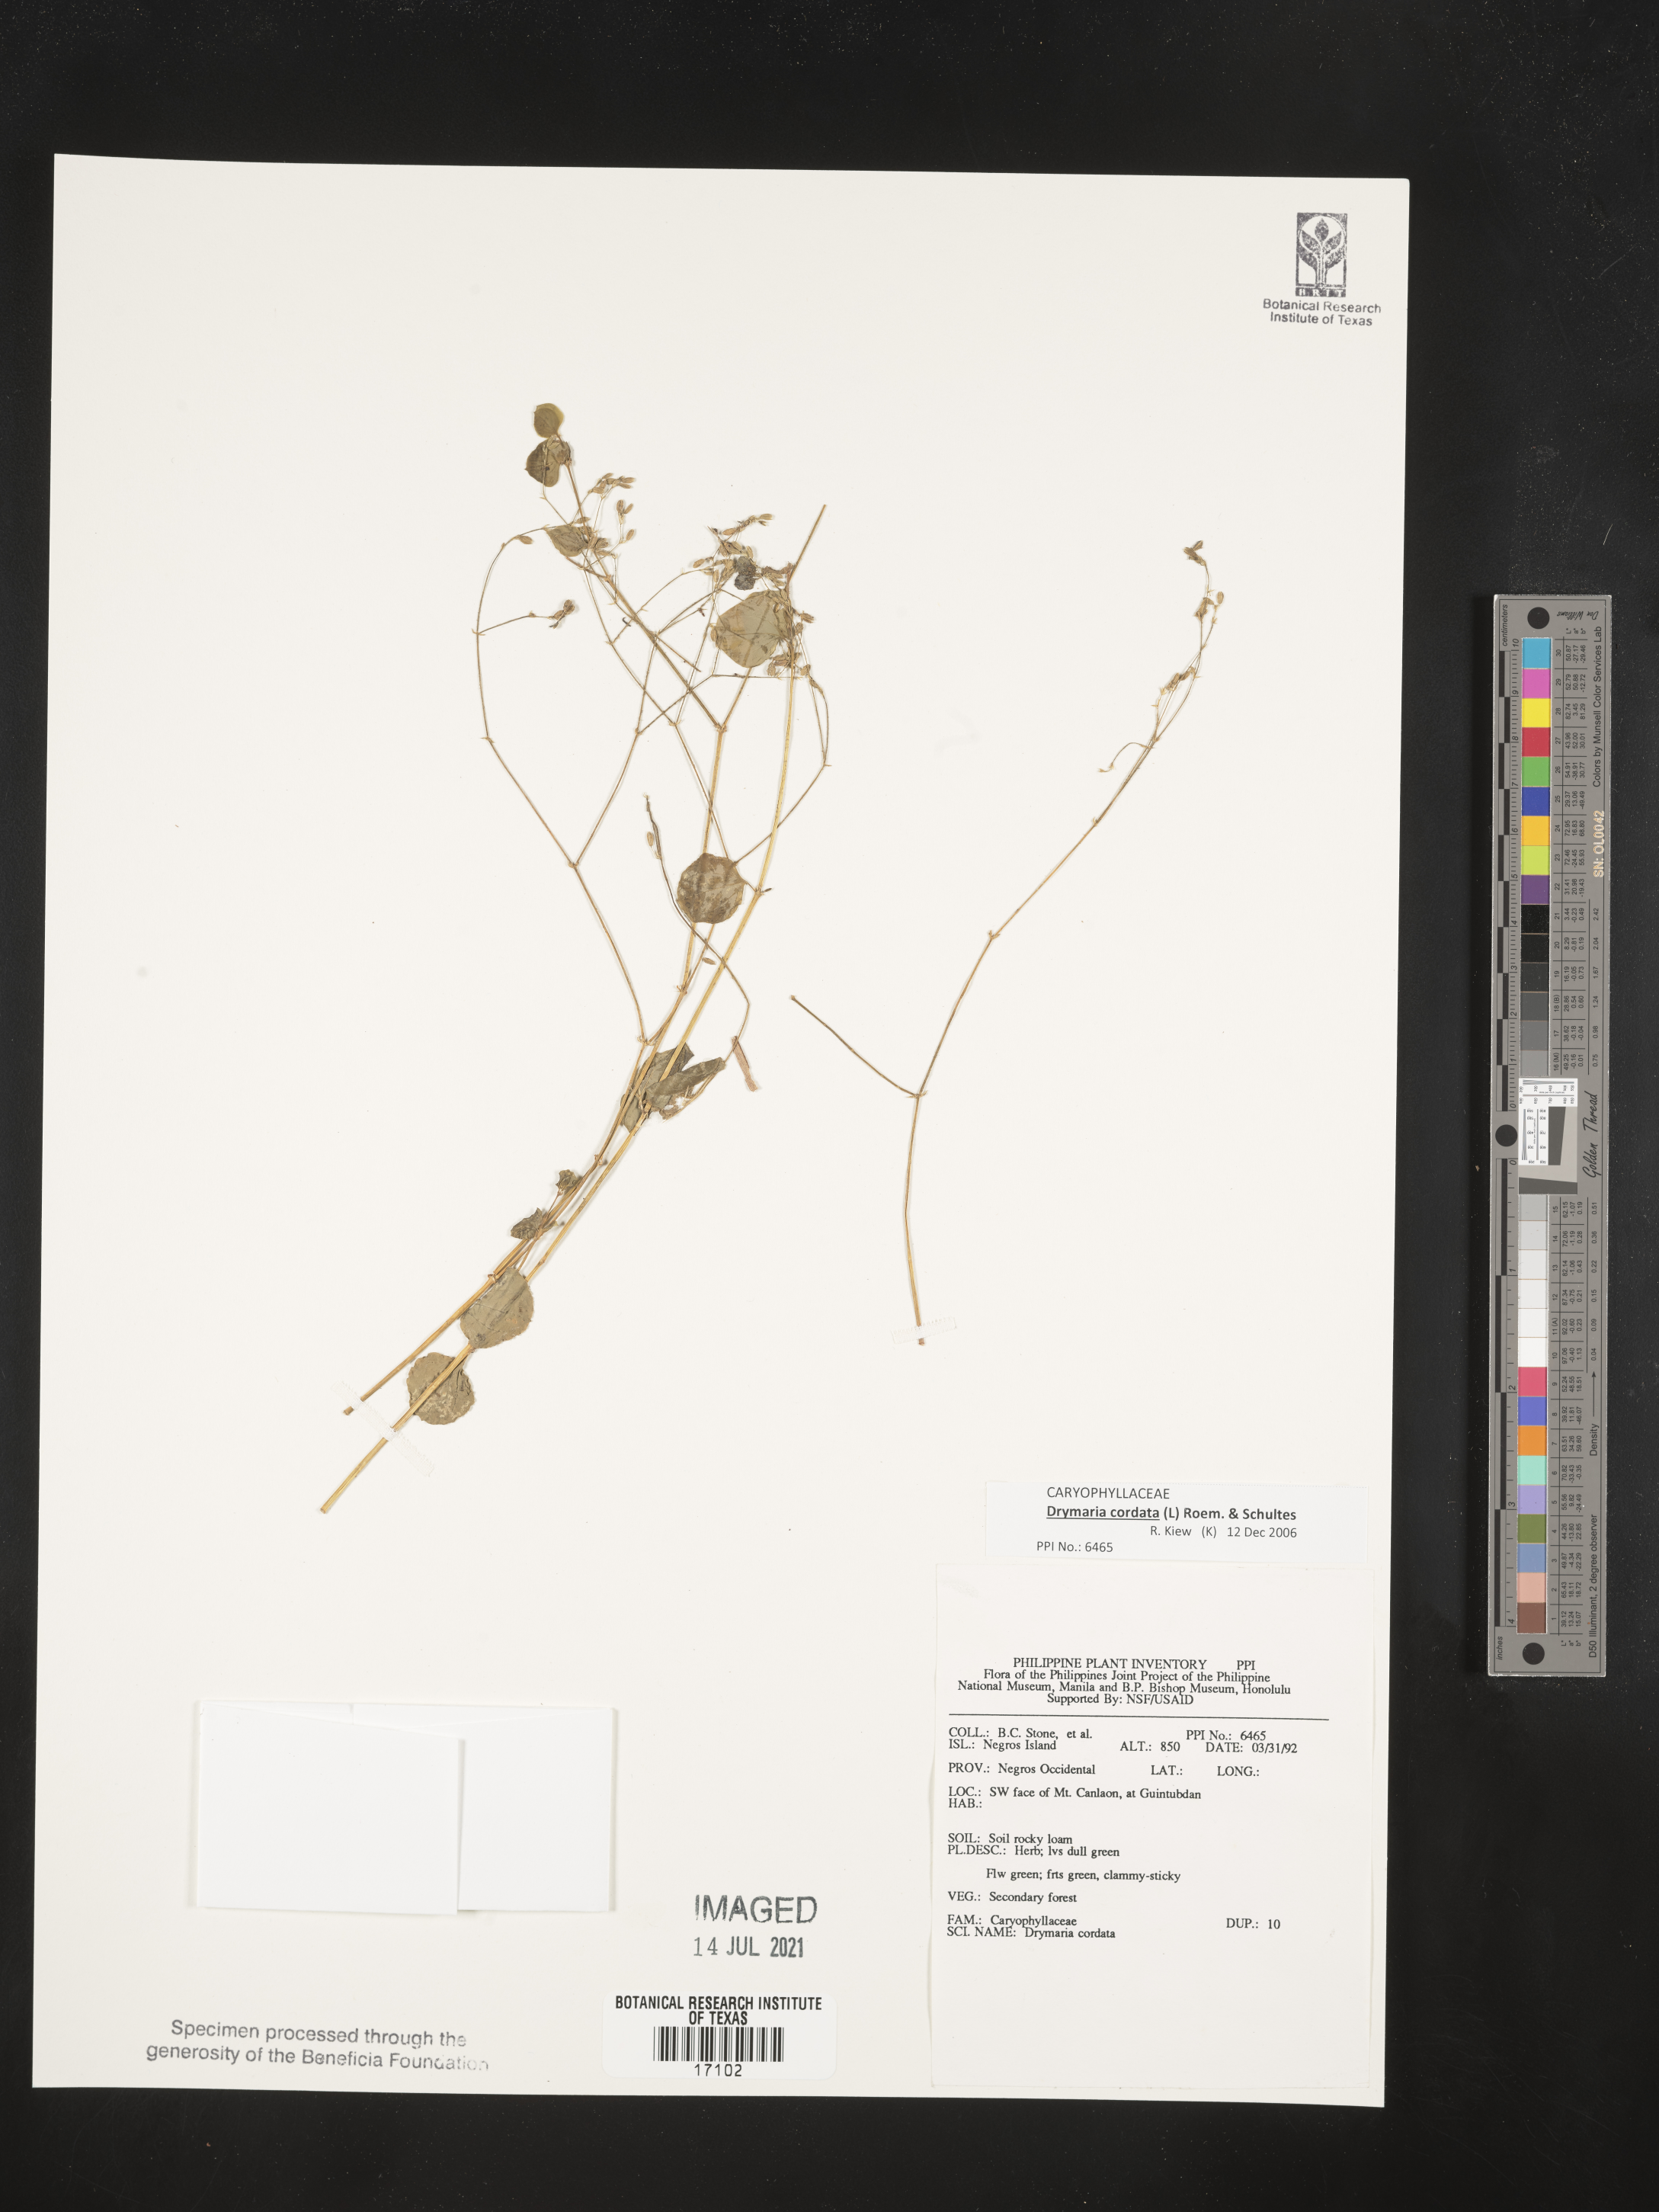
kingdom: Plantae
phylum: Tracheophyta
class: Magnoliopsida
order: Caryophyllales
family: Caryophyllaceae
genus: Drymaria
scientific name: Drymaria cordata
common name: Whitesnow
